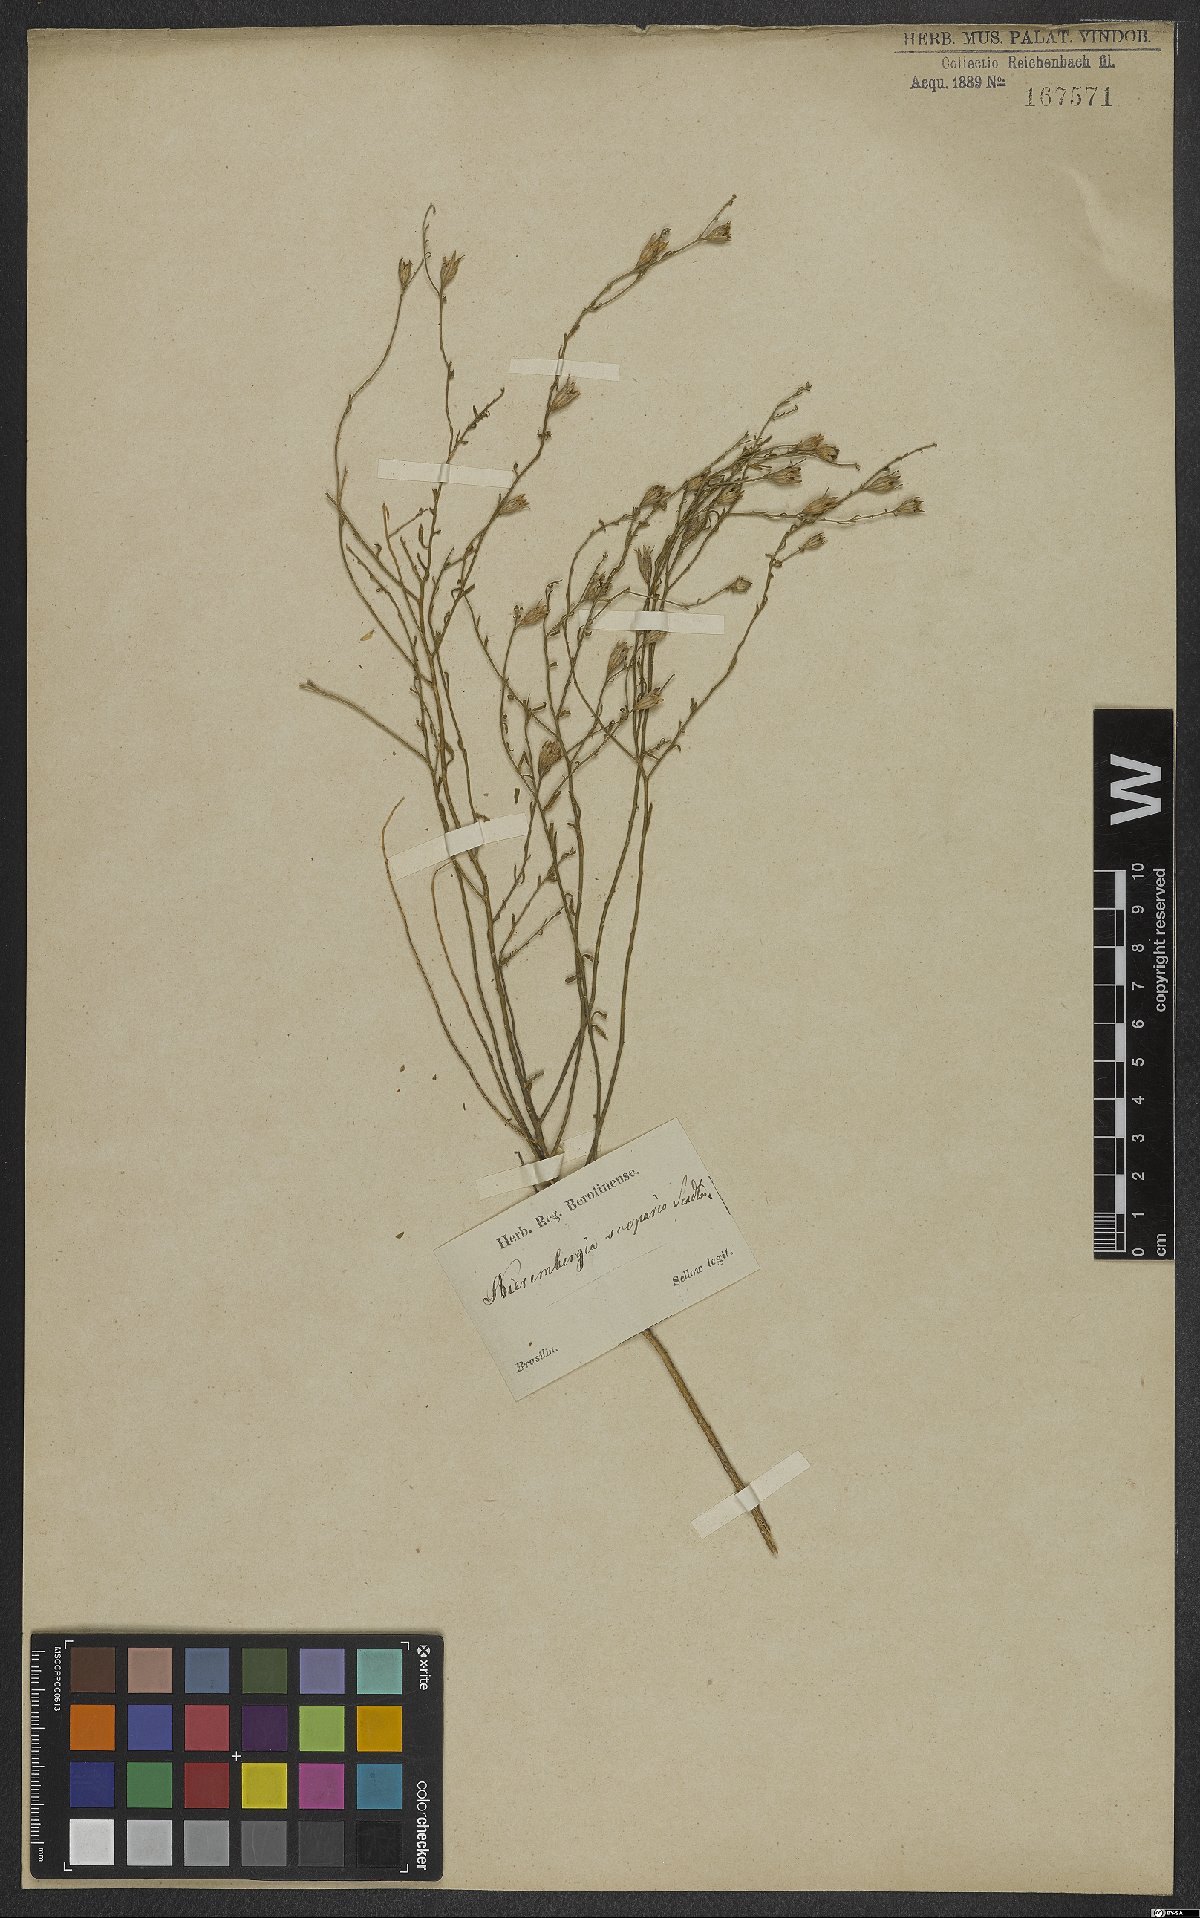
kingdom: Plantae
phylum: Tracheophyta
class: Magnoliopsida
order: Solanales
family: Solanaceae
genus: Nierembergia
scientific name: Nierembergia scoparia
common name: Broom cupflower
